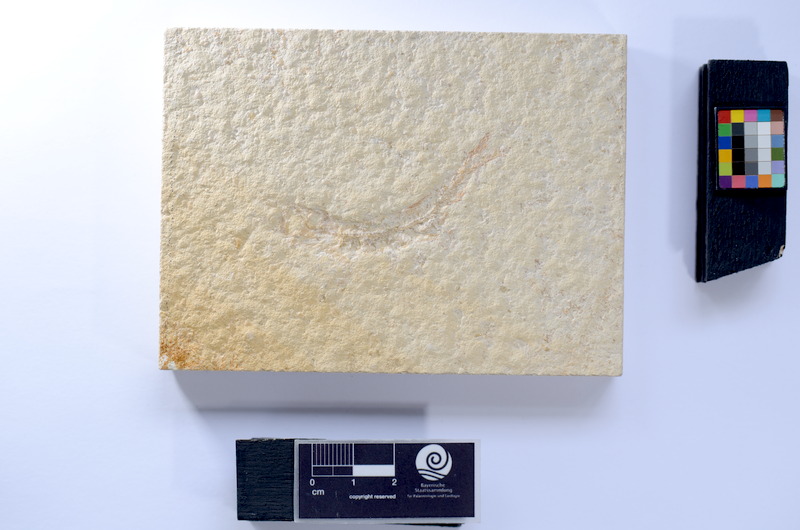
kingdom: Animalia
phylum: Chordata
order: Salmoniformes
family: Orthogonikleithridae
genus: Leptolepides
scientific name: Leptolepides sprattiformis
